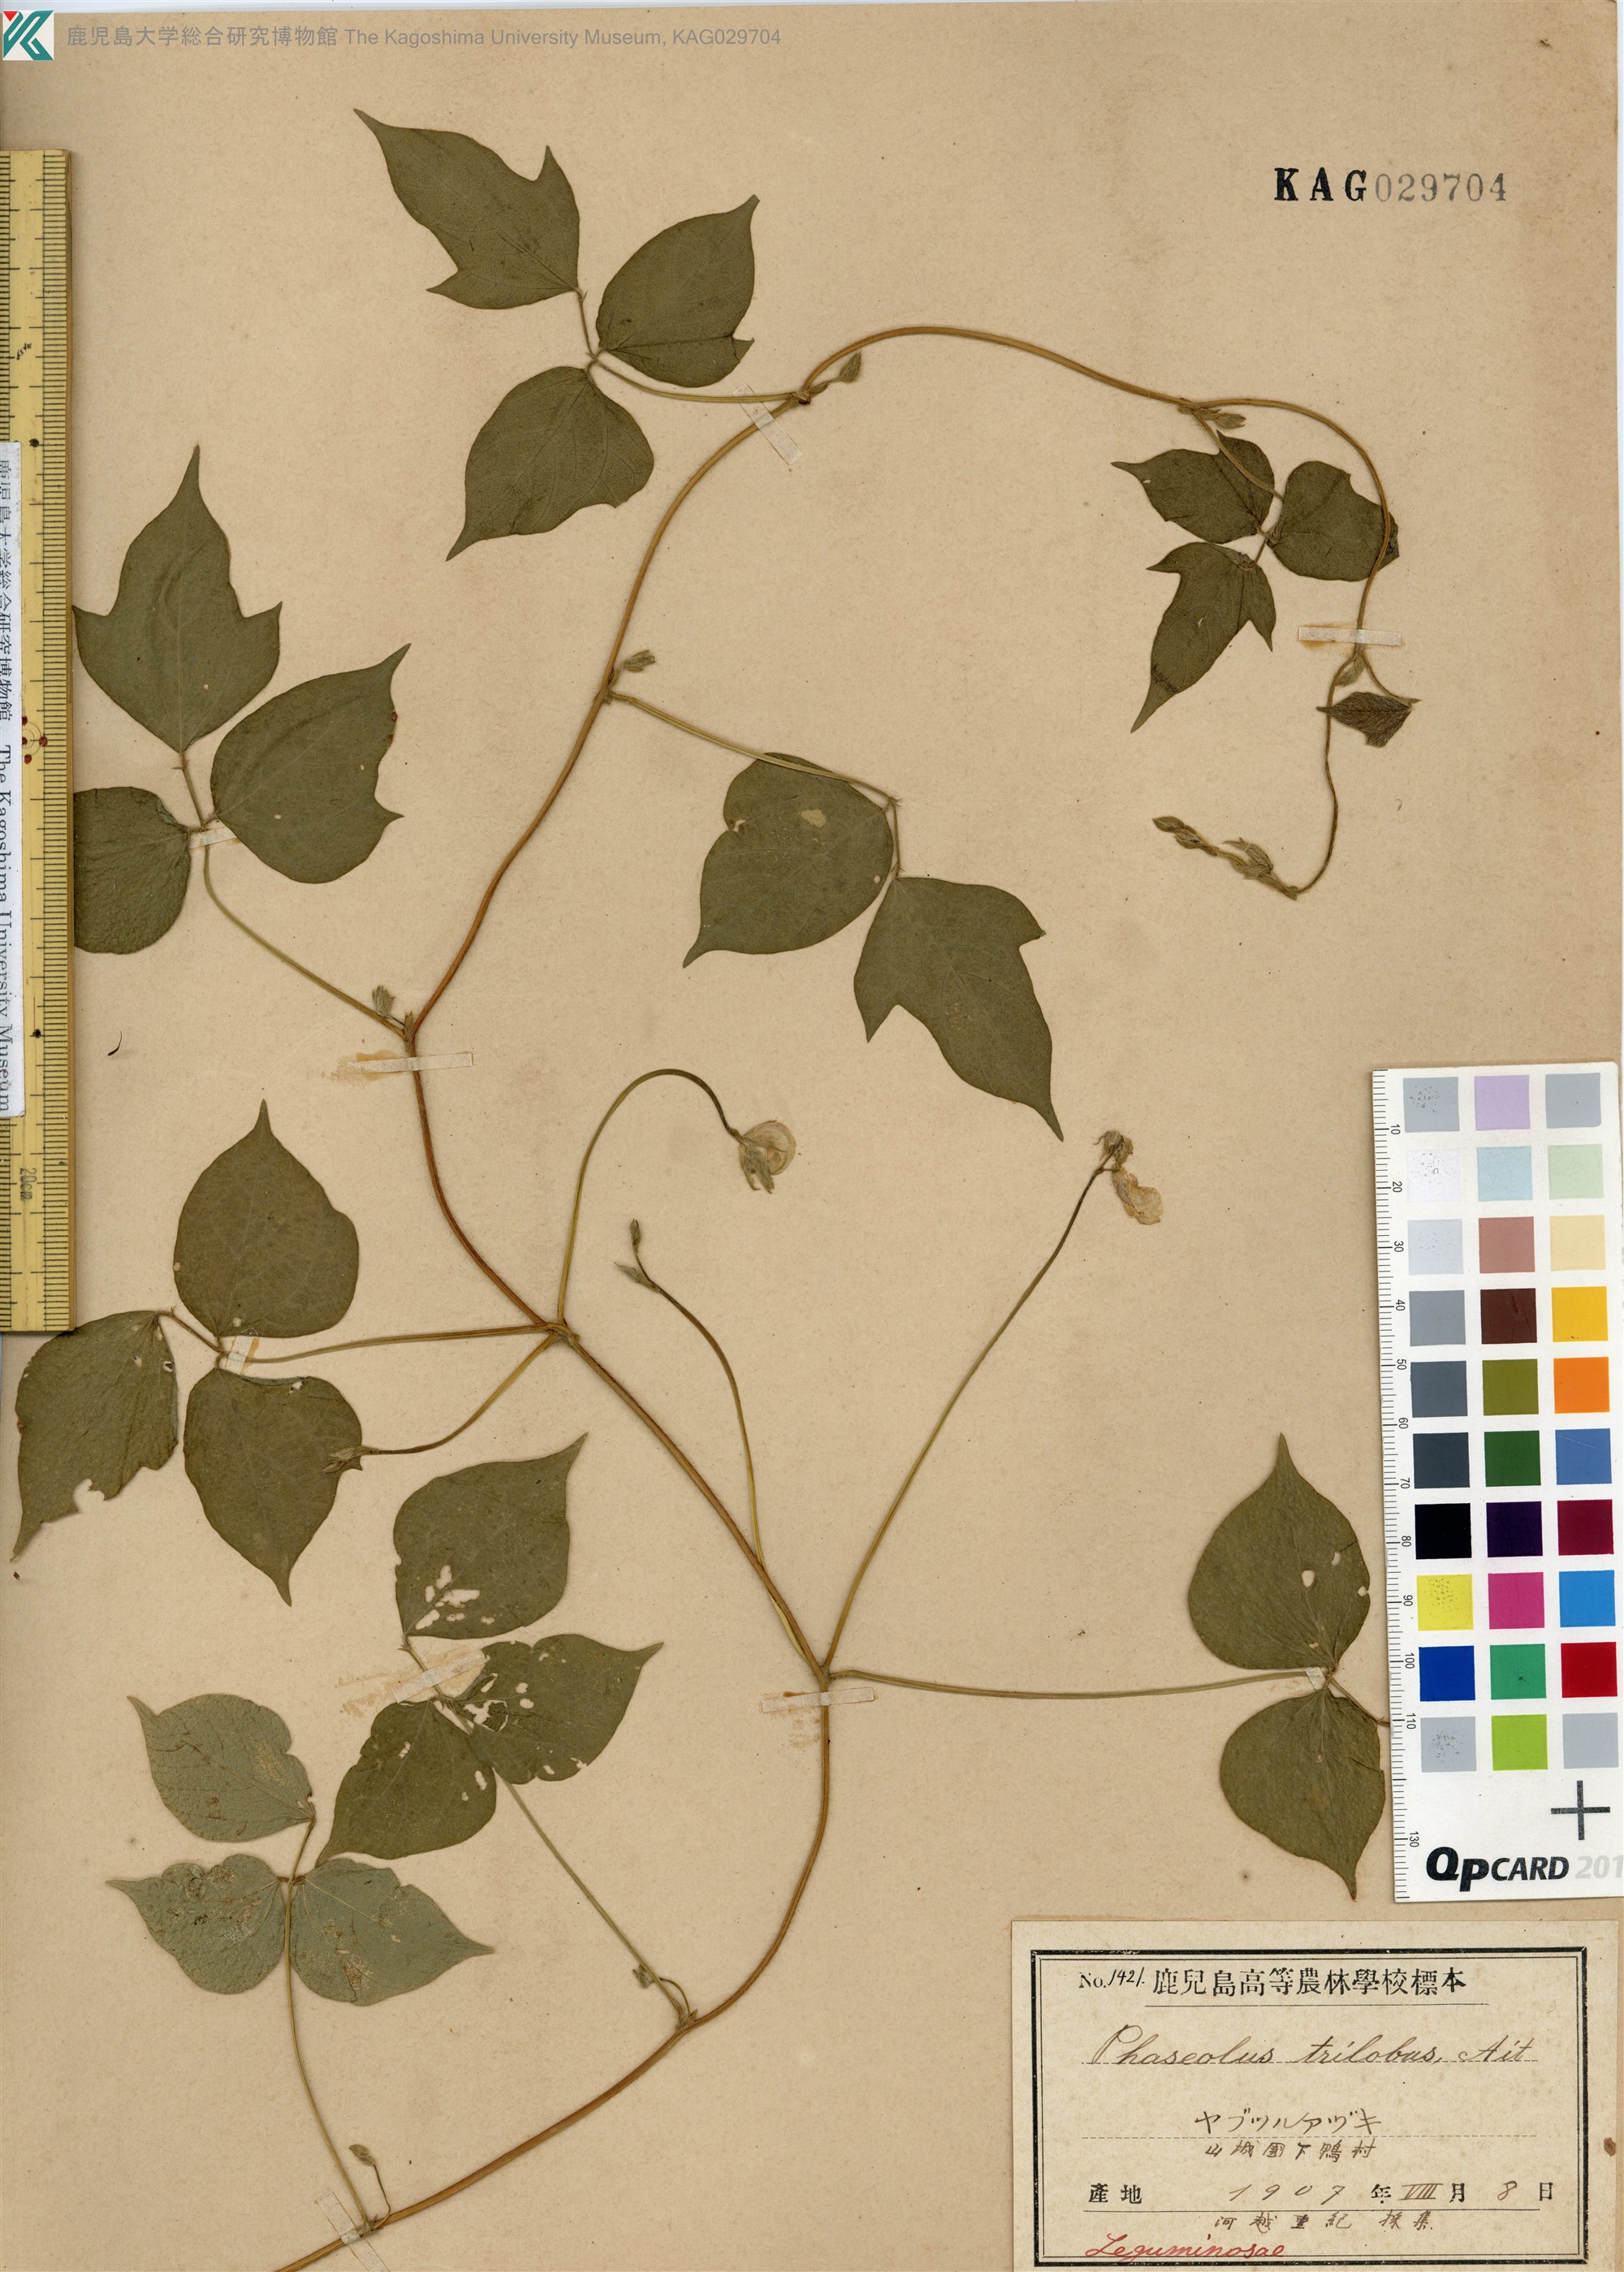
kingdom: Plantae
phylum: Tracheophyta
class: Magnoliopsida
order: Fabales
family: Fabaceae
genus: Vigna
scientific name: Vigna angularis
